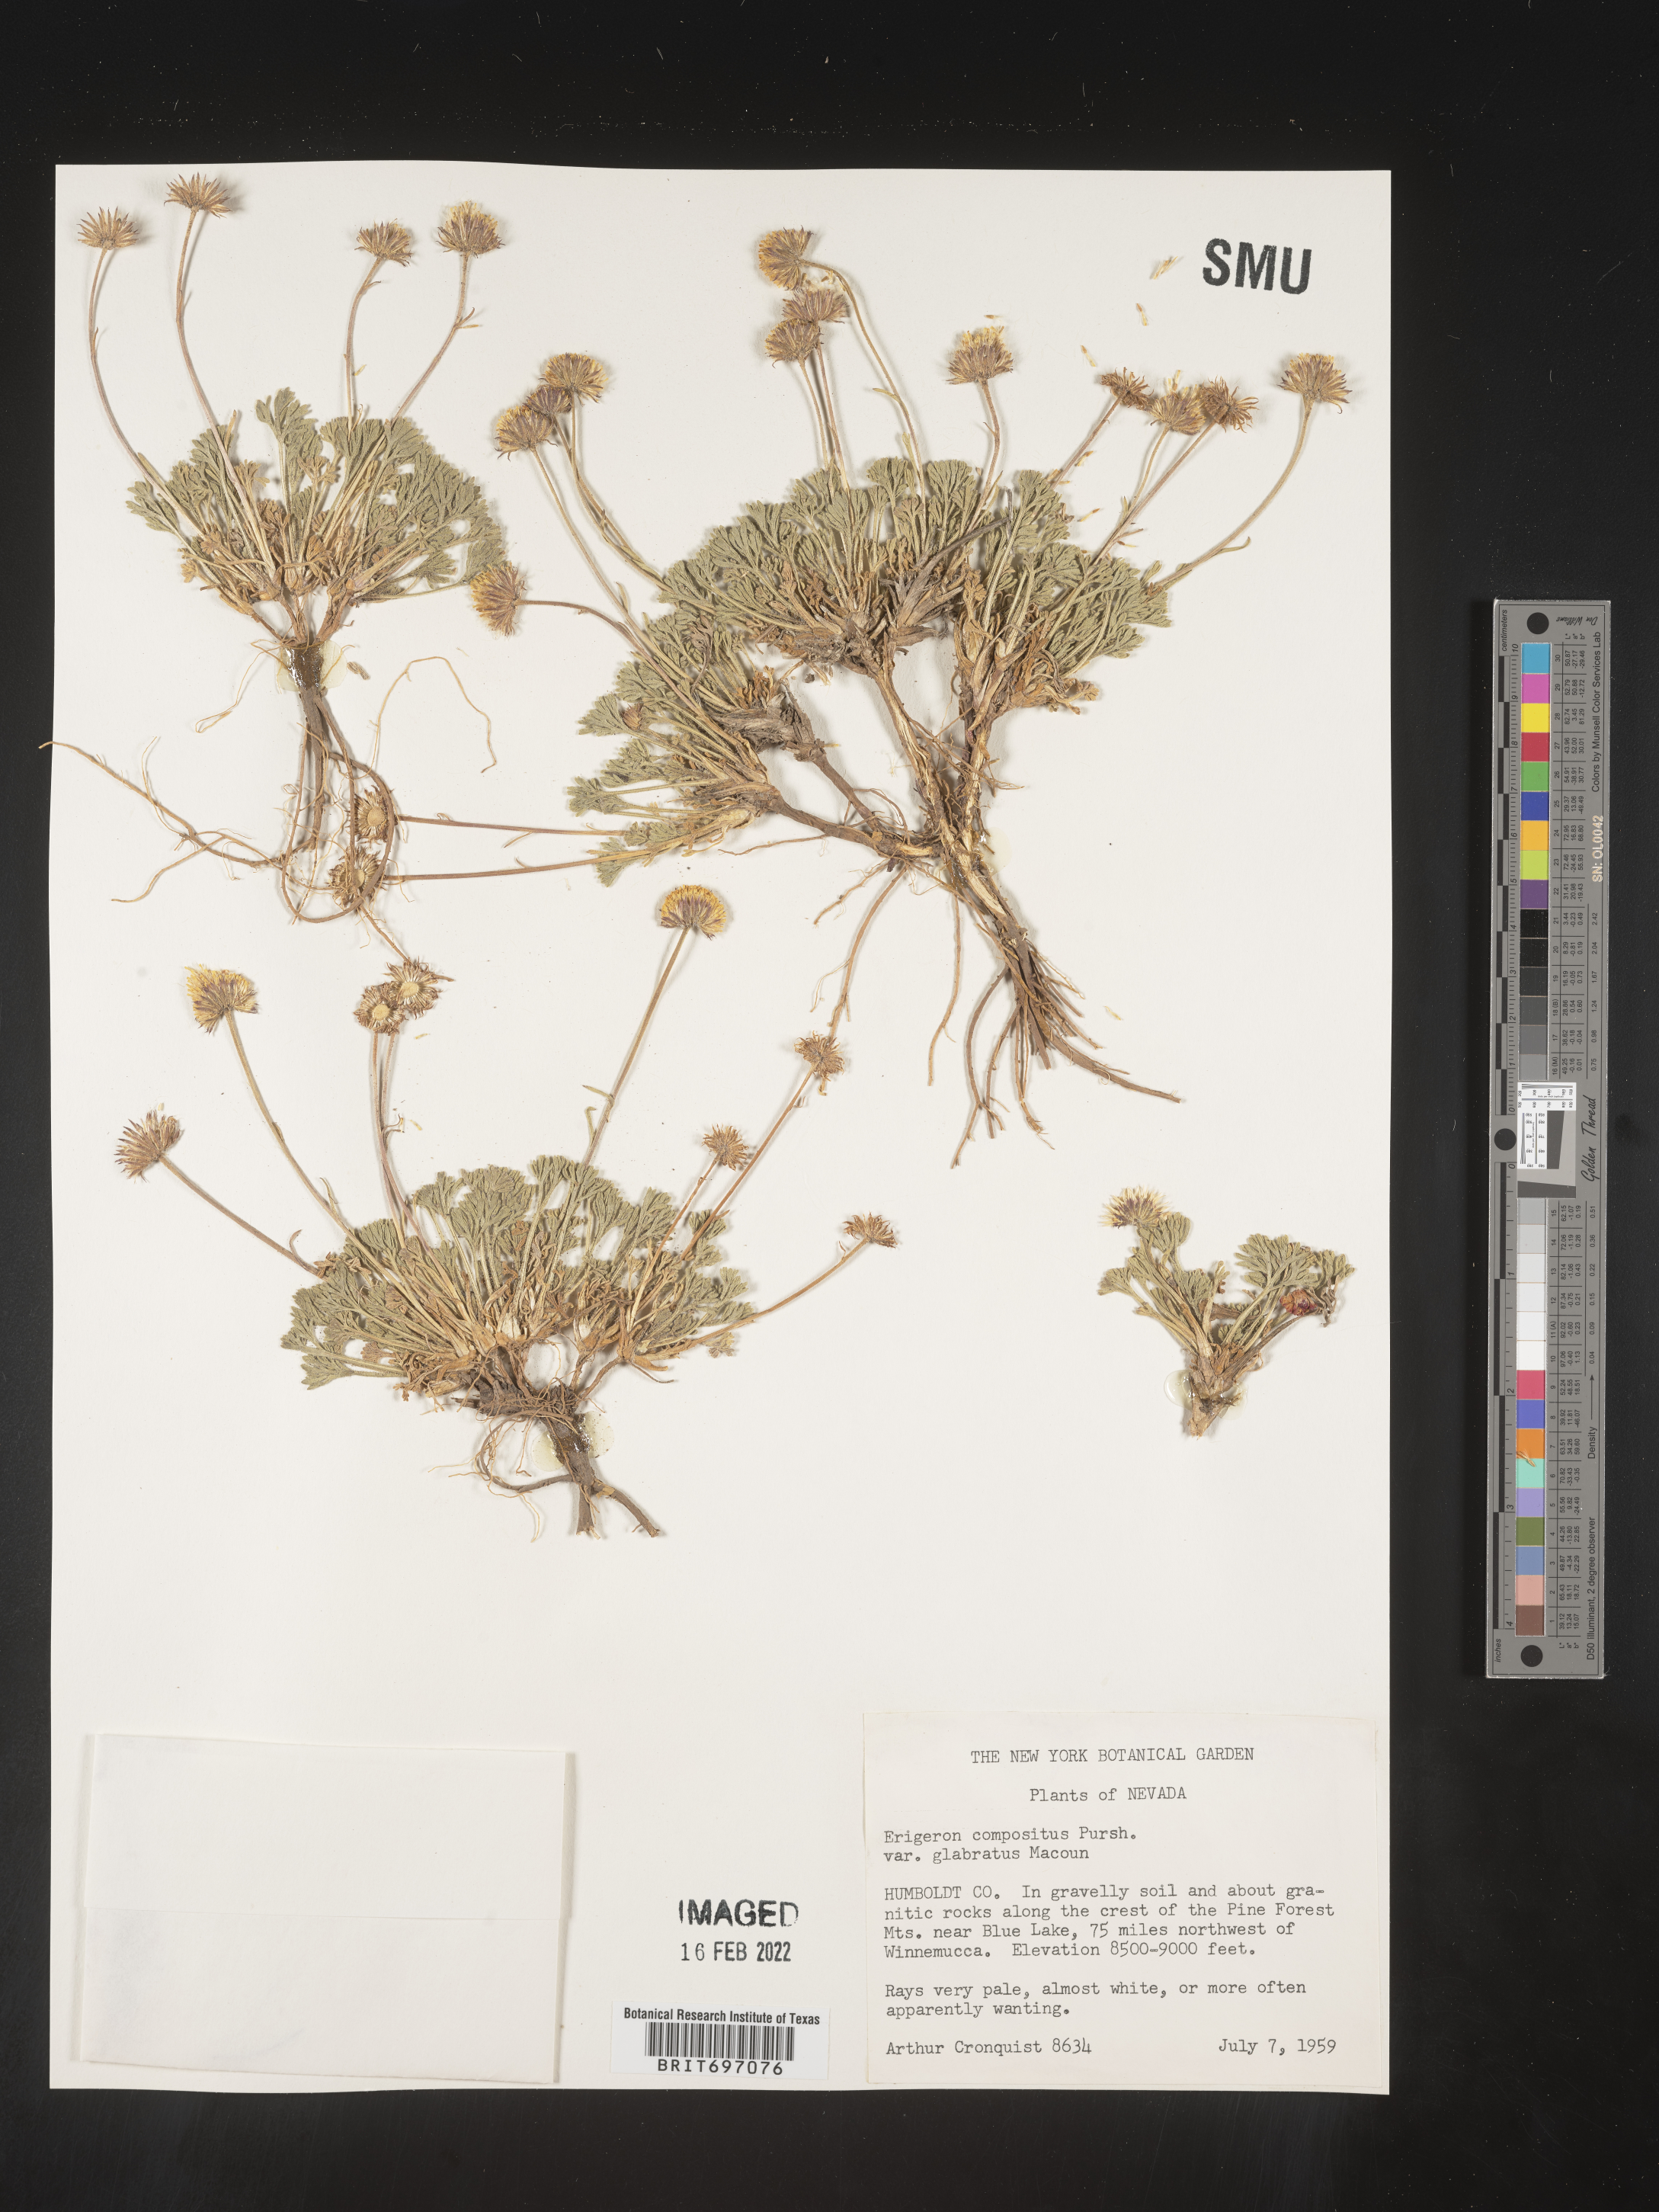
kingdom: Plantae
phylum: Tracheophyta
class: Magnoliopsida
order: Asterales
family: Asteraceae
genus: Erigeron
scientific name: Erigeron compositus
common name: Dwarf mountain fleabane
